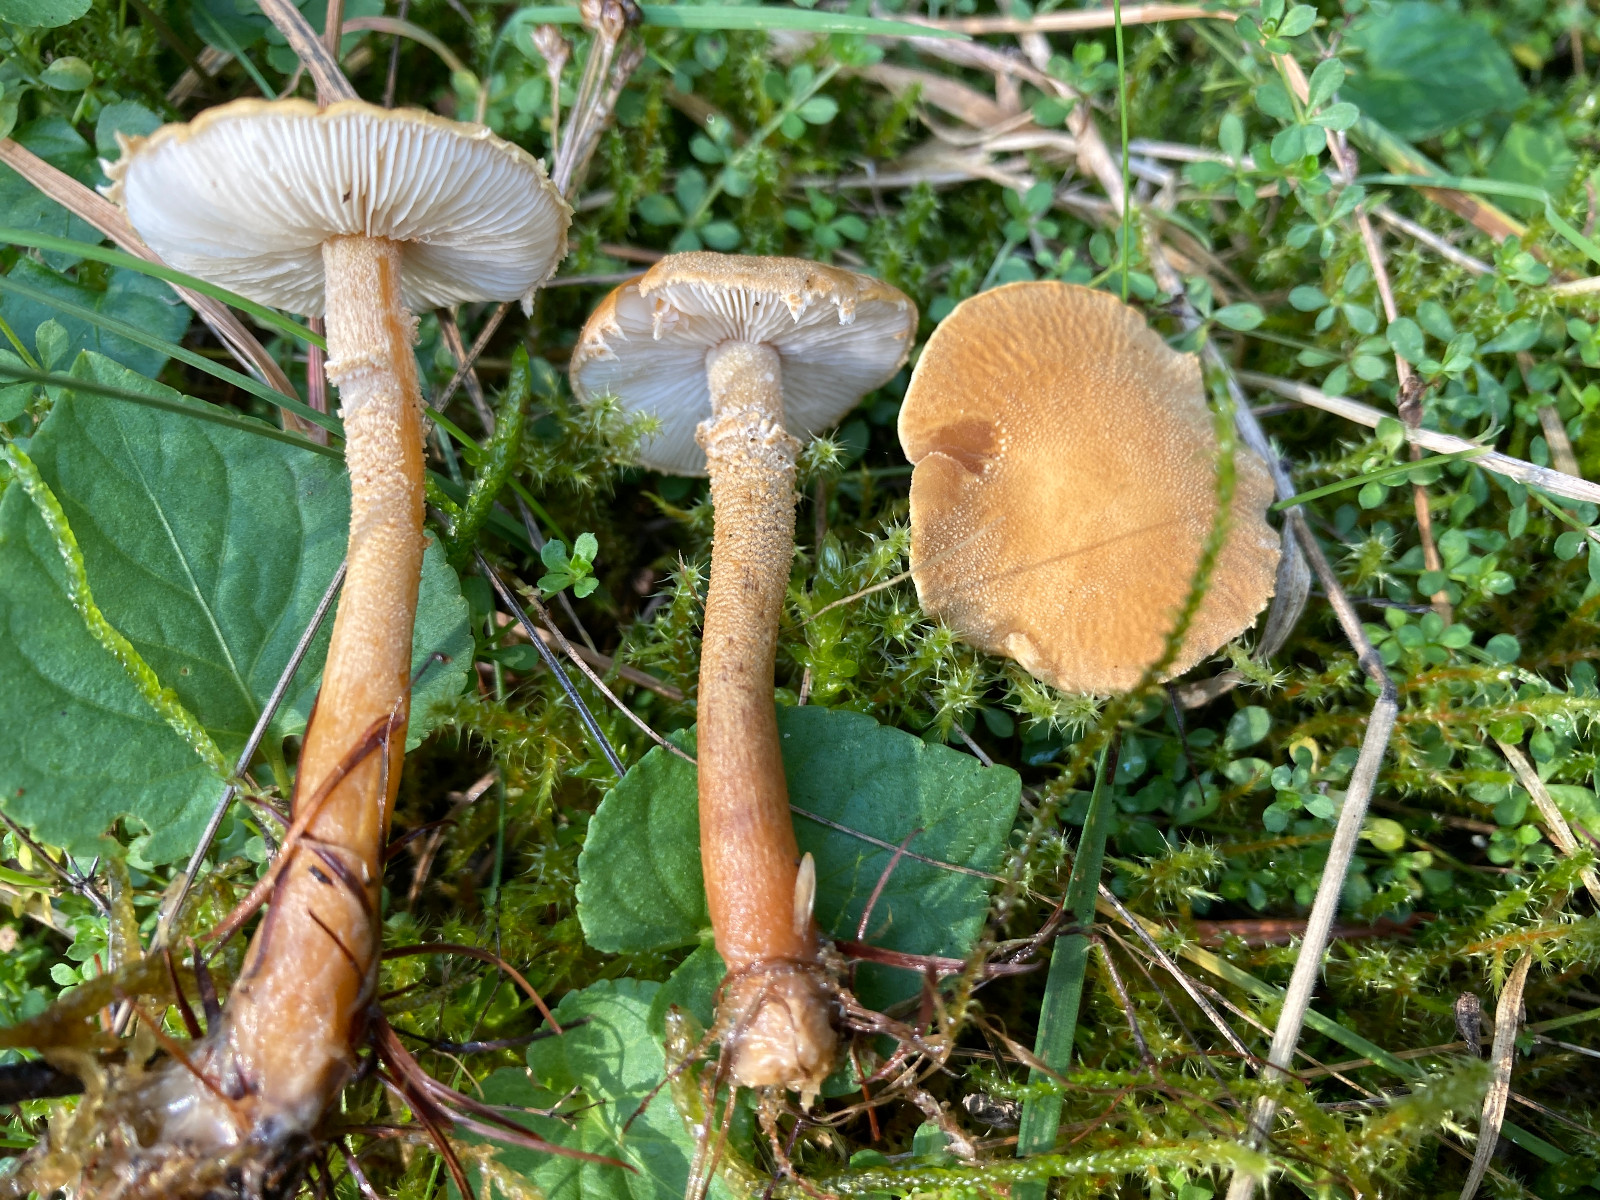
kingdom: Fungi
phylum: Basidiomycota
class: Agaricomycetes
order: Agaricales
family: Tricholomataceae
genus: Cystoderma
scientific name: Cystoderma amianthinum
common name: okkergul grynhat
